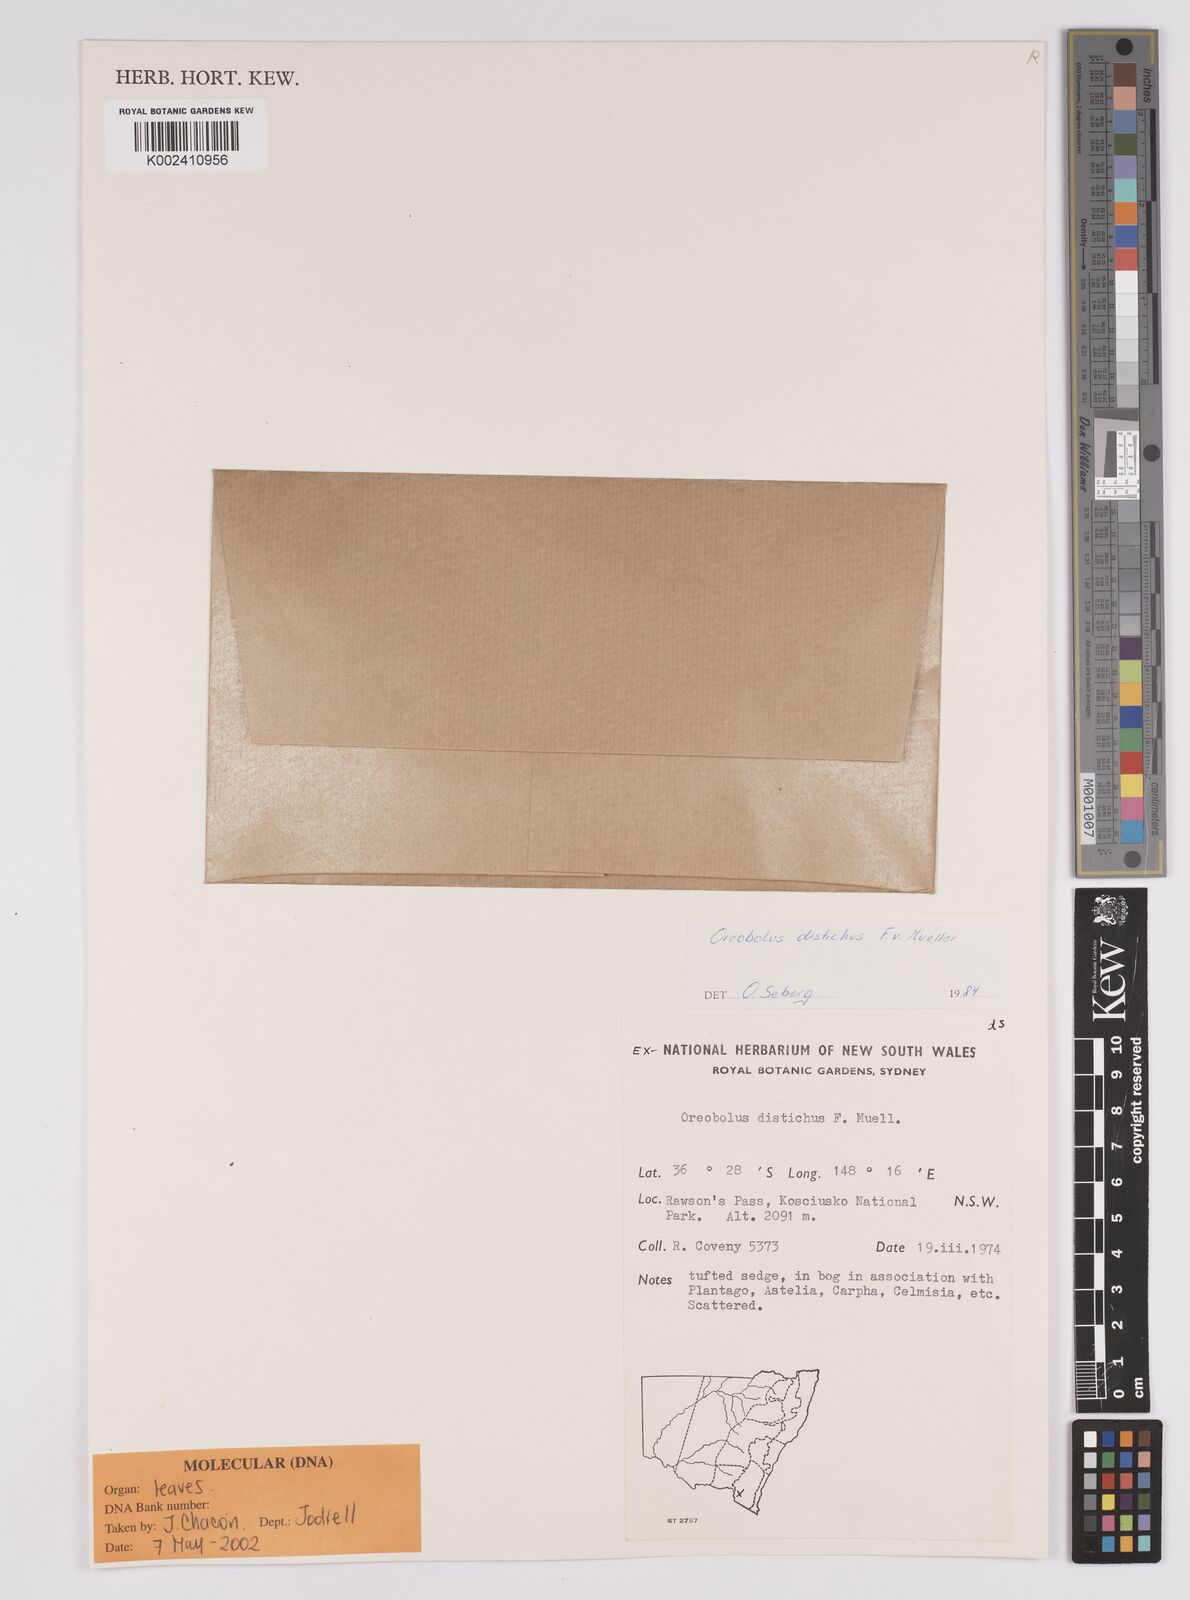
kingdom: Plantae
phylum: Tracheophyta
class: Liliopsida
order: Poales
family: Cyperaceae
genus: Oreobolus
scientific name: Oreobolus distichus
